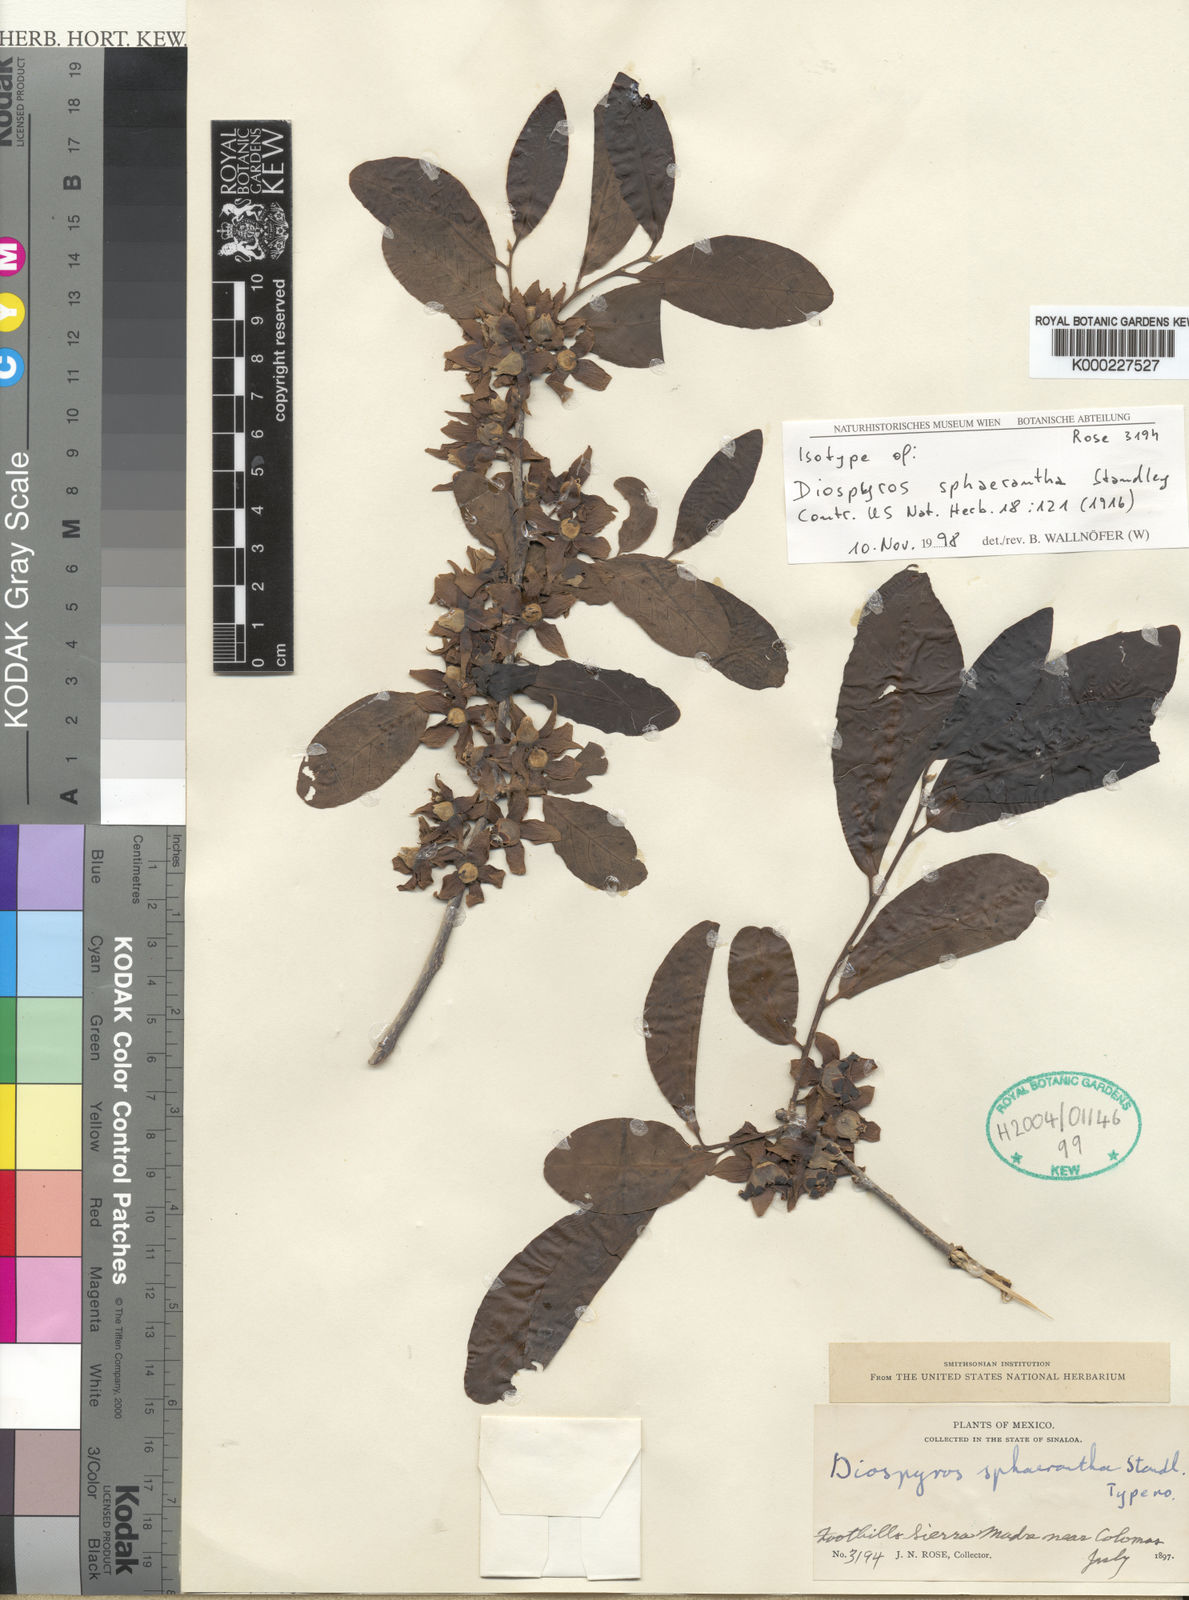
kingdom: Plantae
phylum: Tracheophyta
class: Magnoliopsida
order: Ericales
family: Ebenaceae
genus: Diospyros
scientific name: Diospyros rosei
